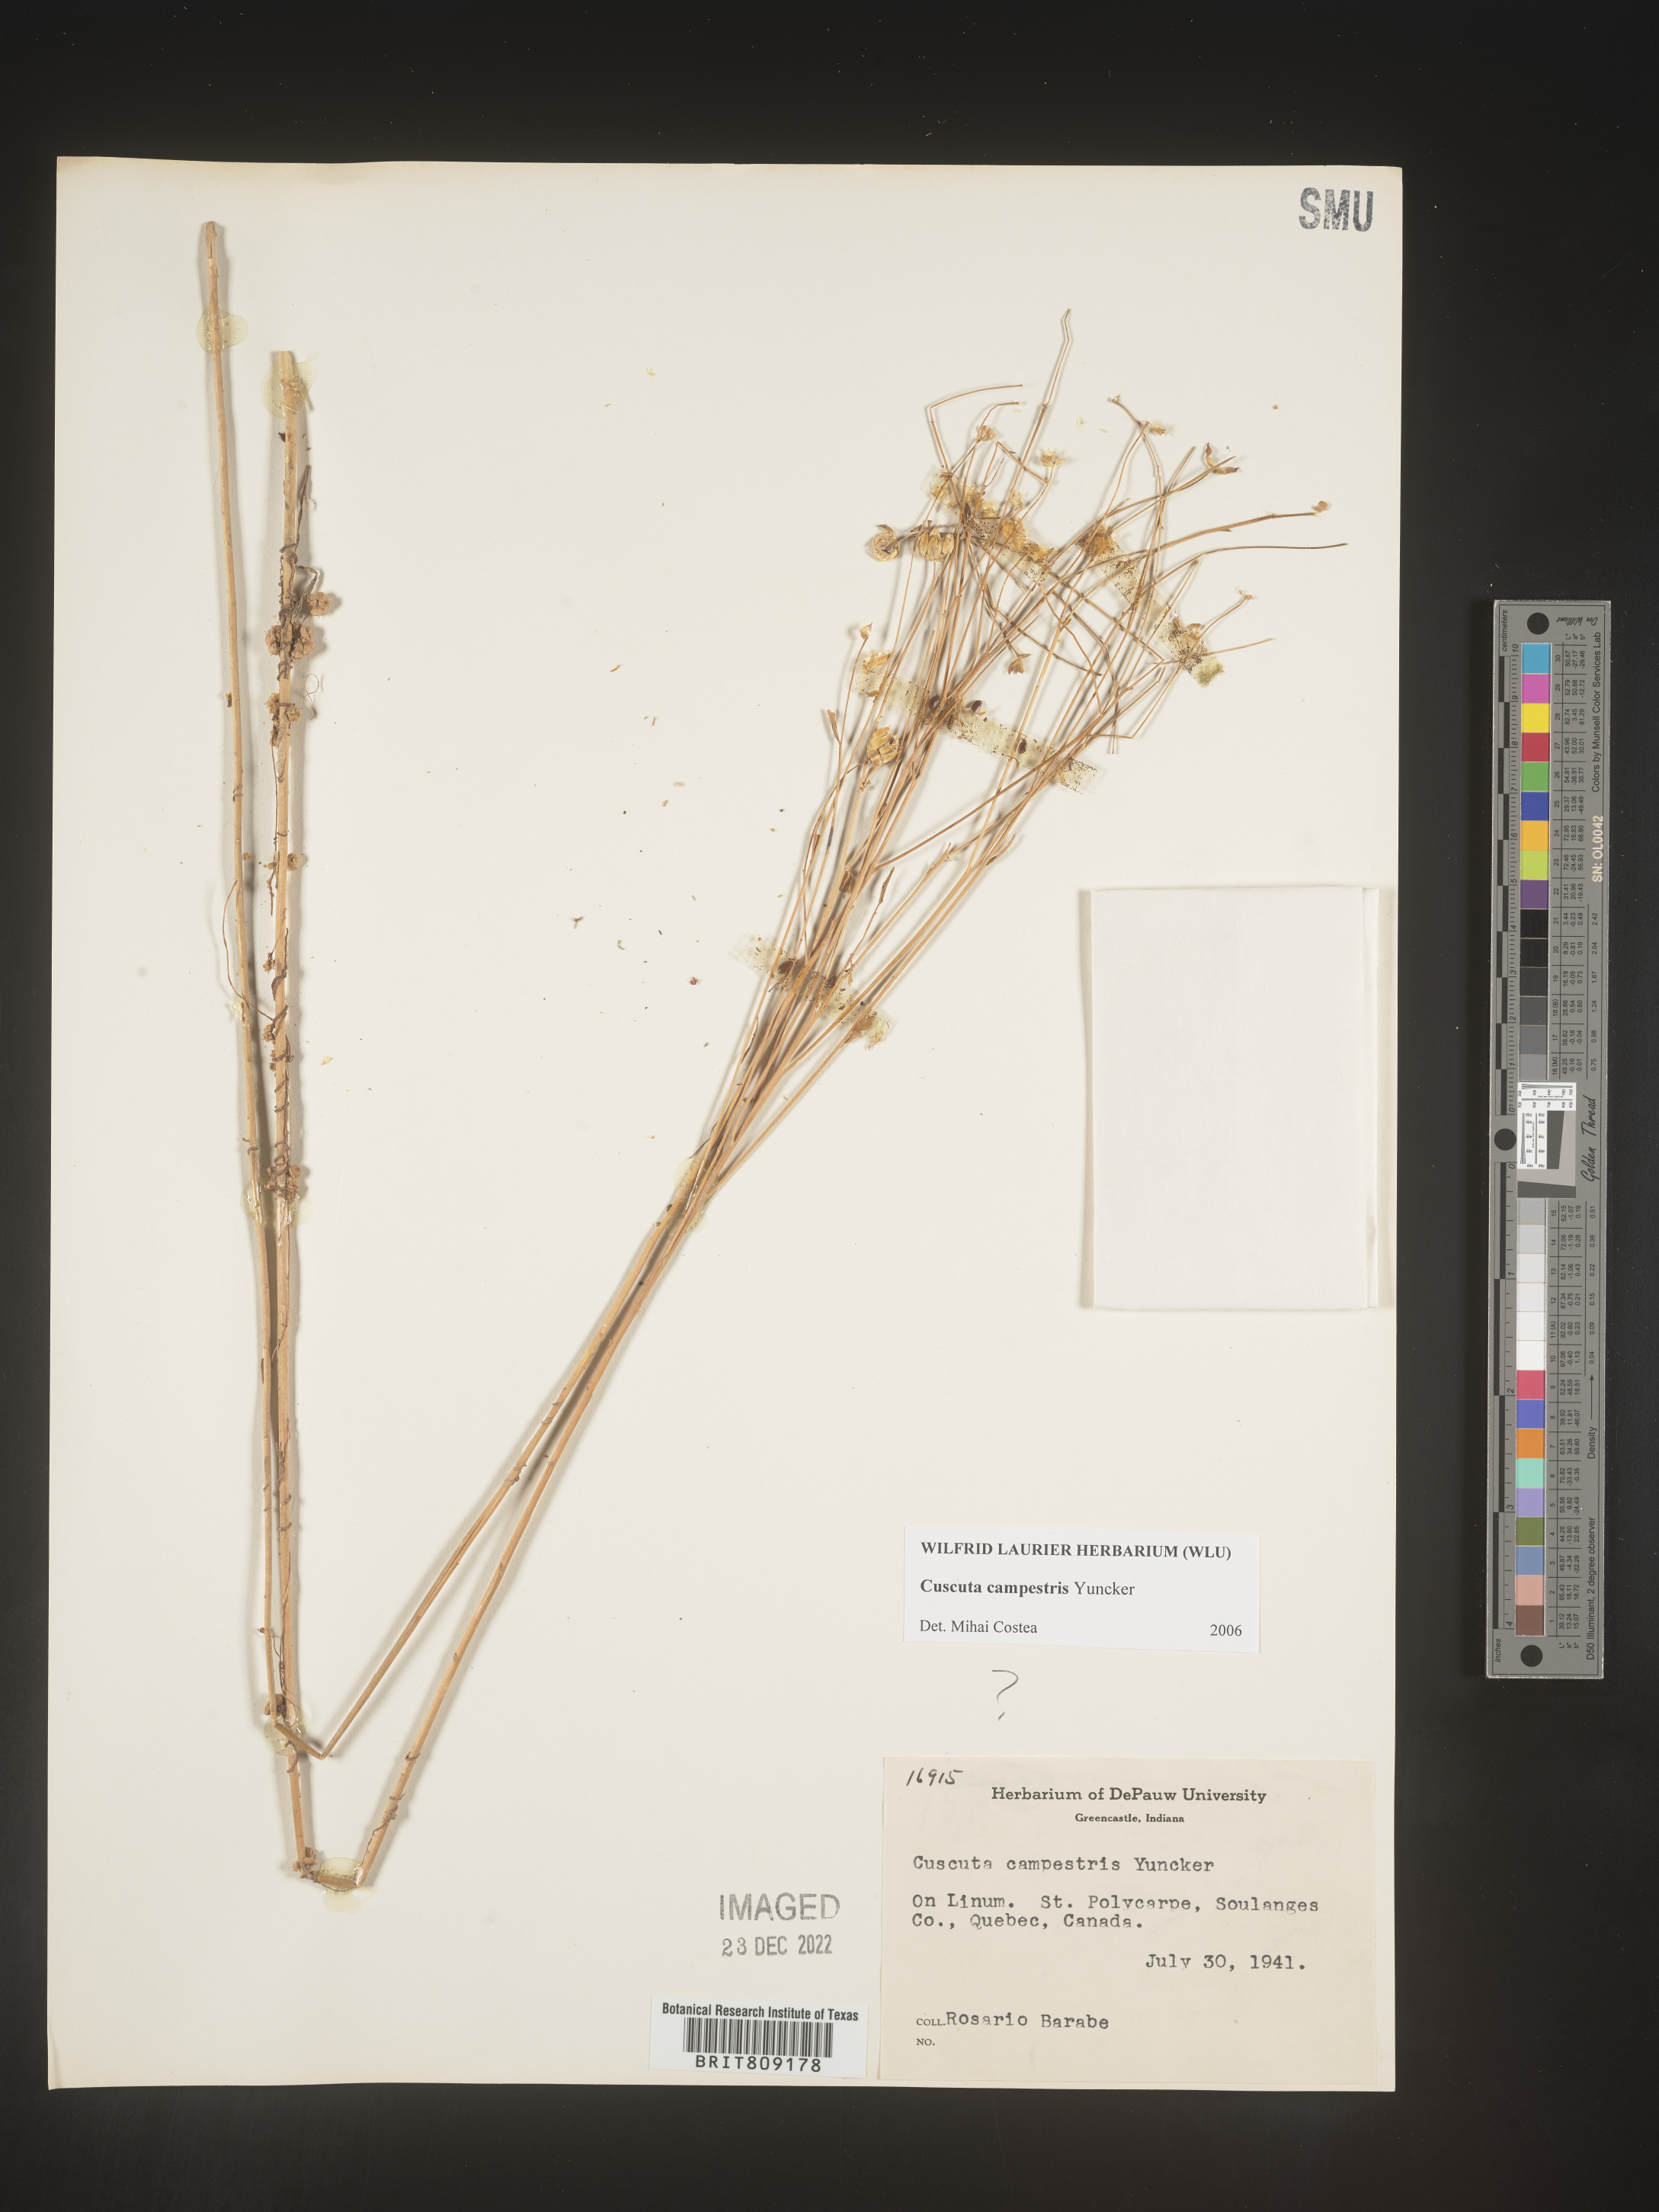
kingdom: Plantae
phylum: Tracheophyta
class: Magnoliopsida
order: Solanales
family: Convolvulaceae
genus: Cuscuta
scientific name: Cuscuta campestris
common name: Yellow dodder
